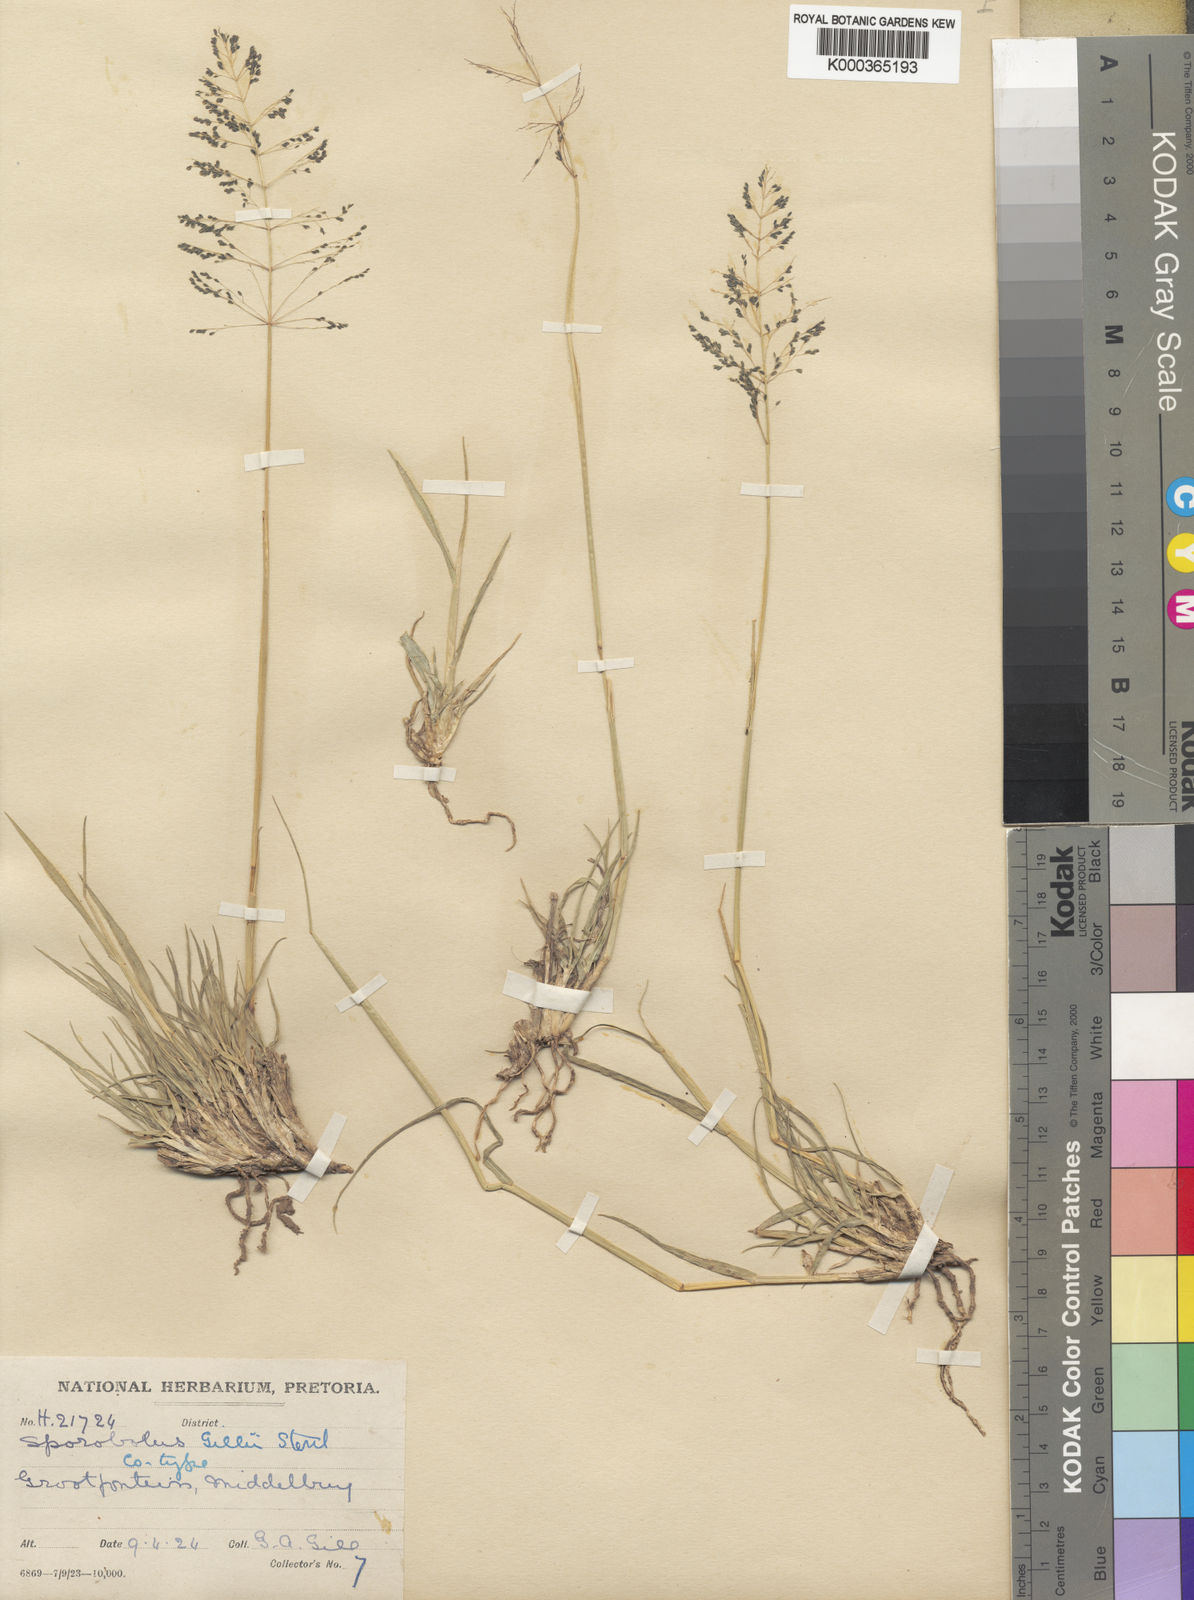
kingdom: Plantae
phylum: Tracheophyta
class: Liliopsida
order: Poales
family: Poaceae
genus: Sporobolus
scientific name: Sporobolus ioclados
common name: Pan dropseed
